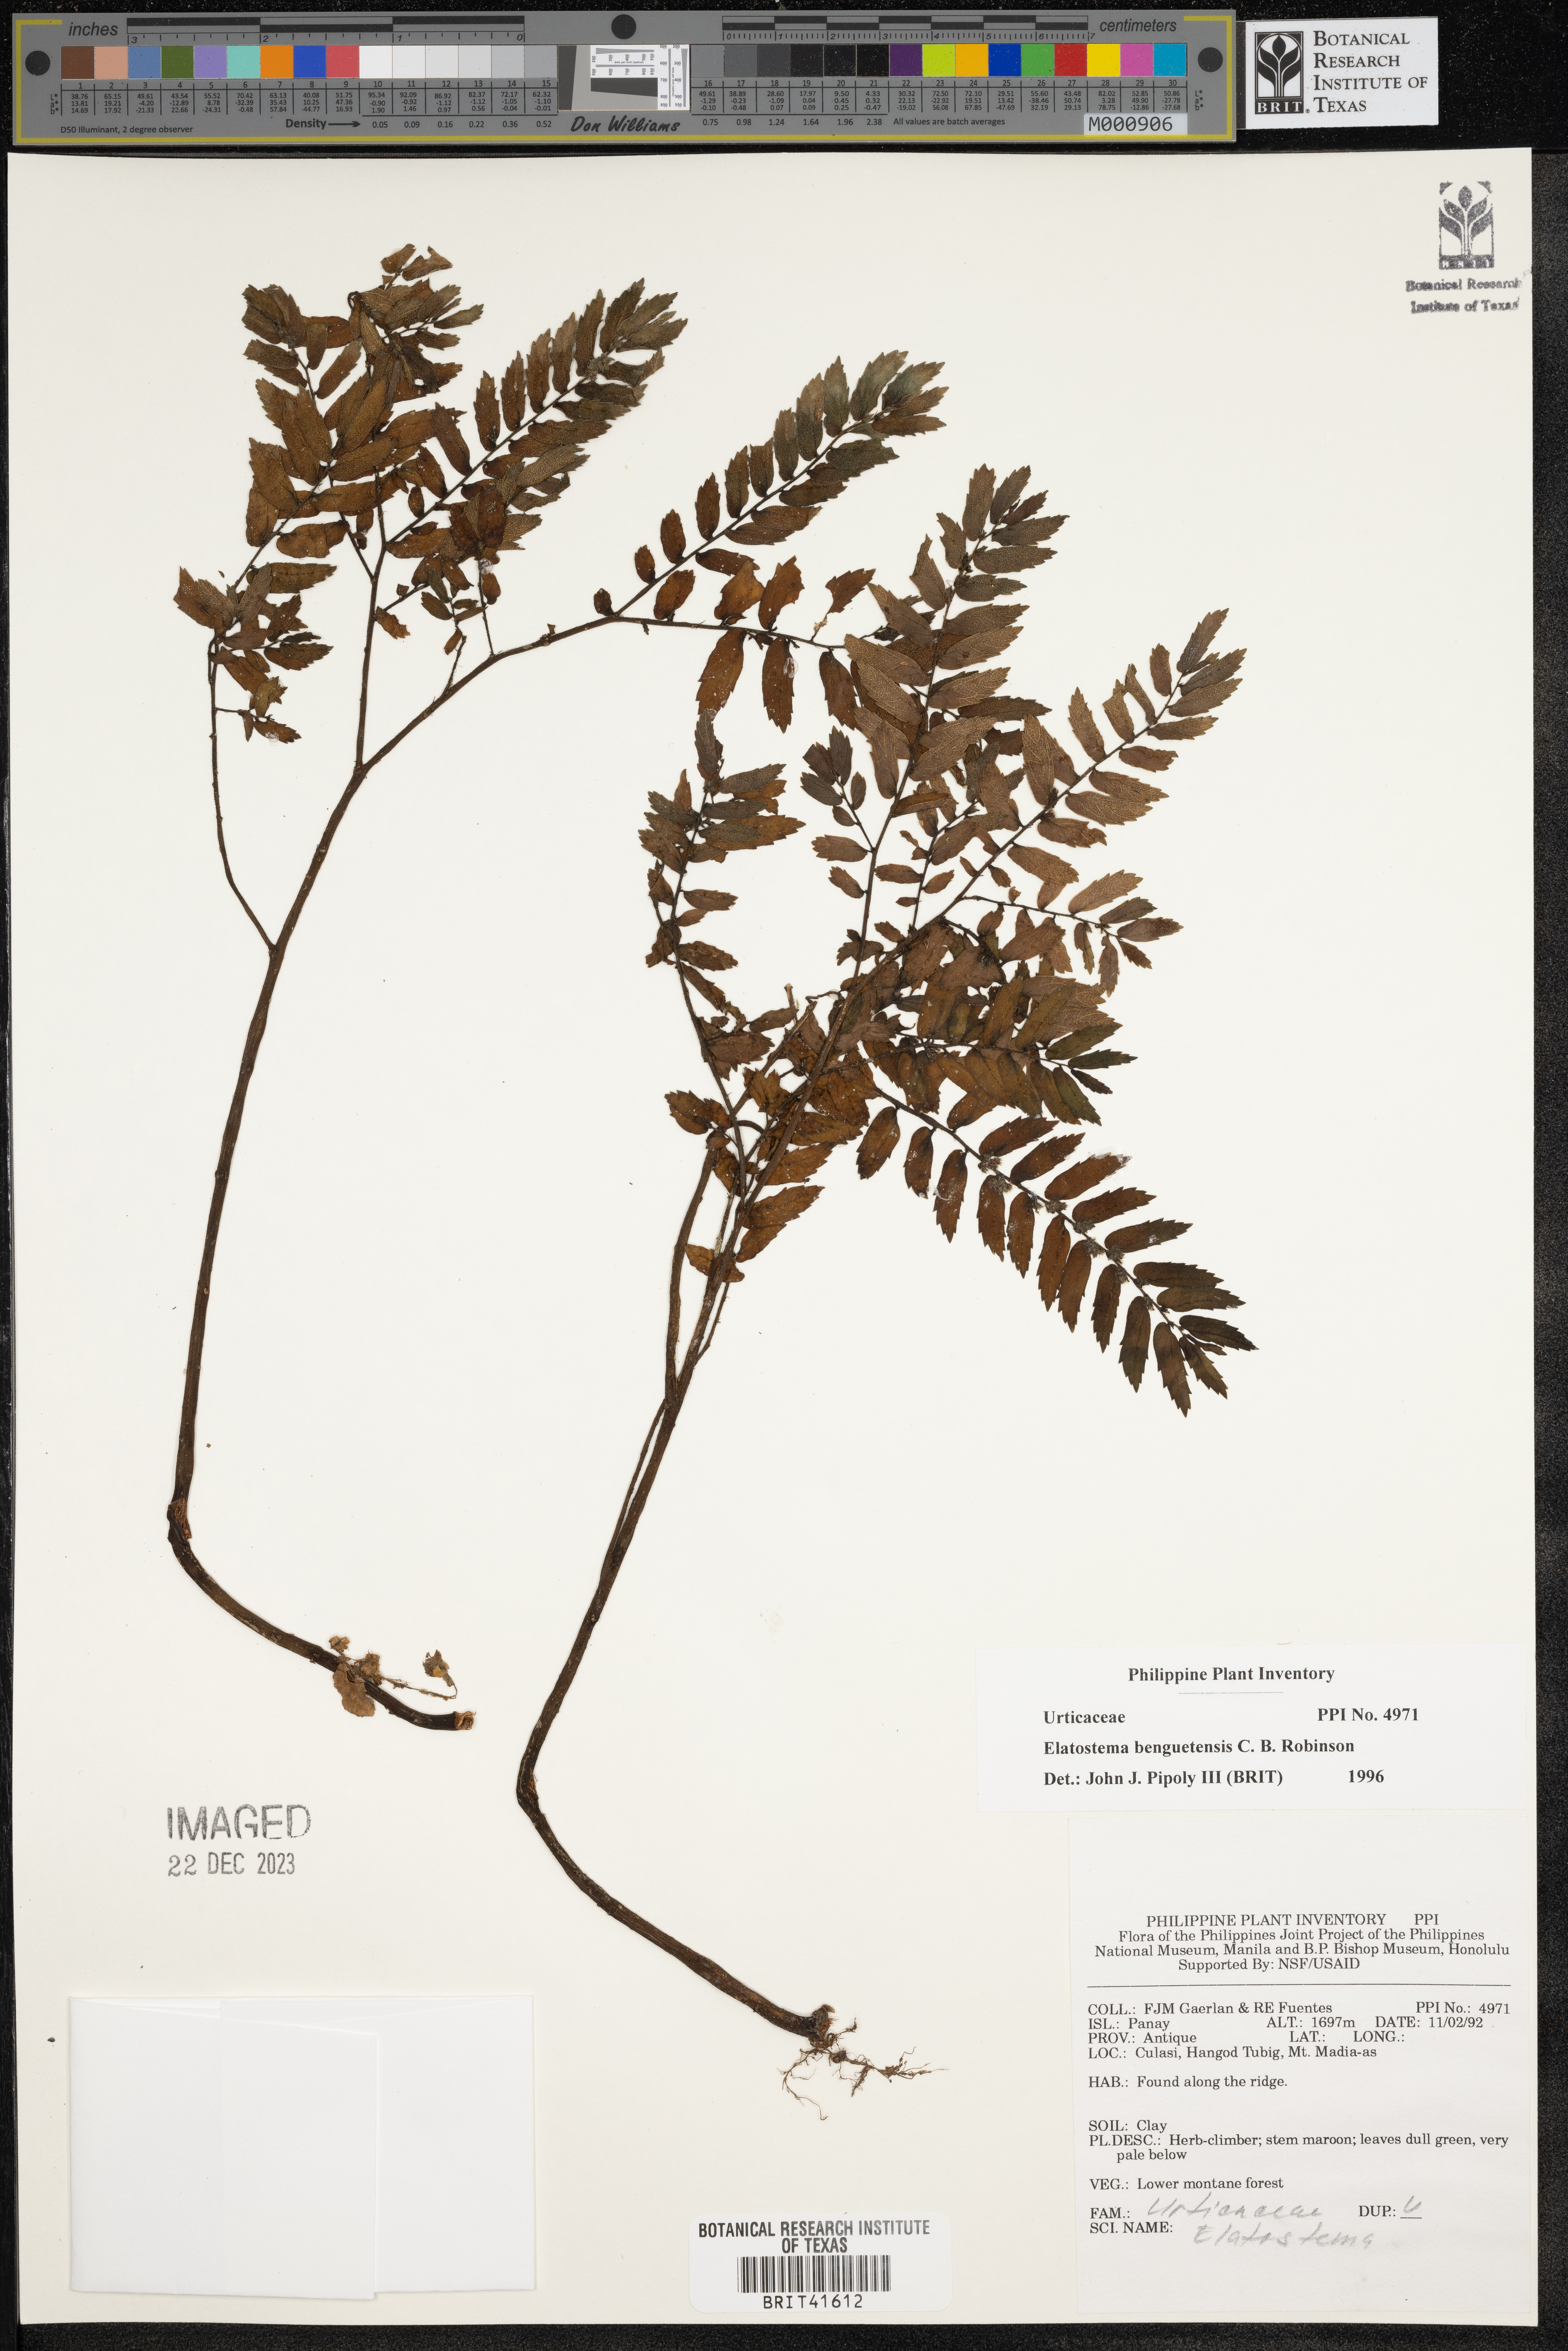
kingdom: Plantae
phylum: Tracheophyta
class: Magnoliopsida
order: Rosales
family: Urticaceae
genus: Elatostema
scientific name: Elatostema benguetense
